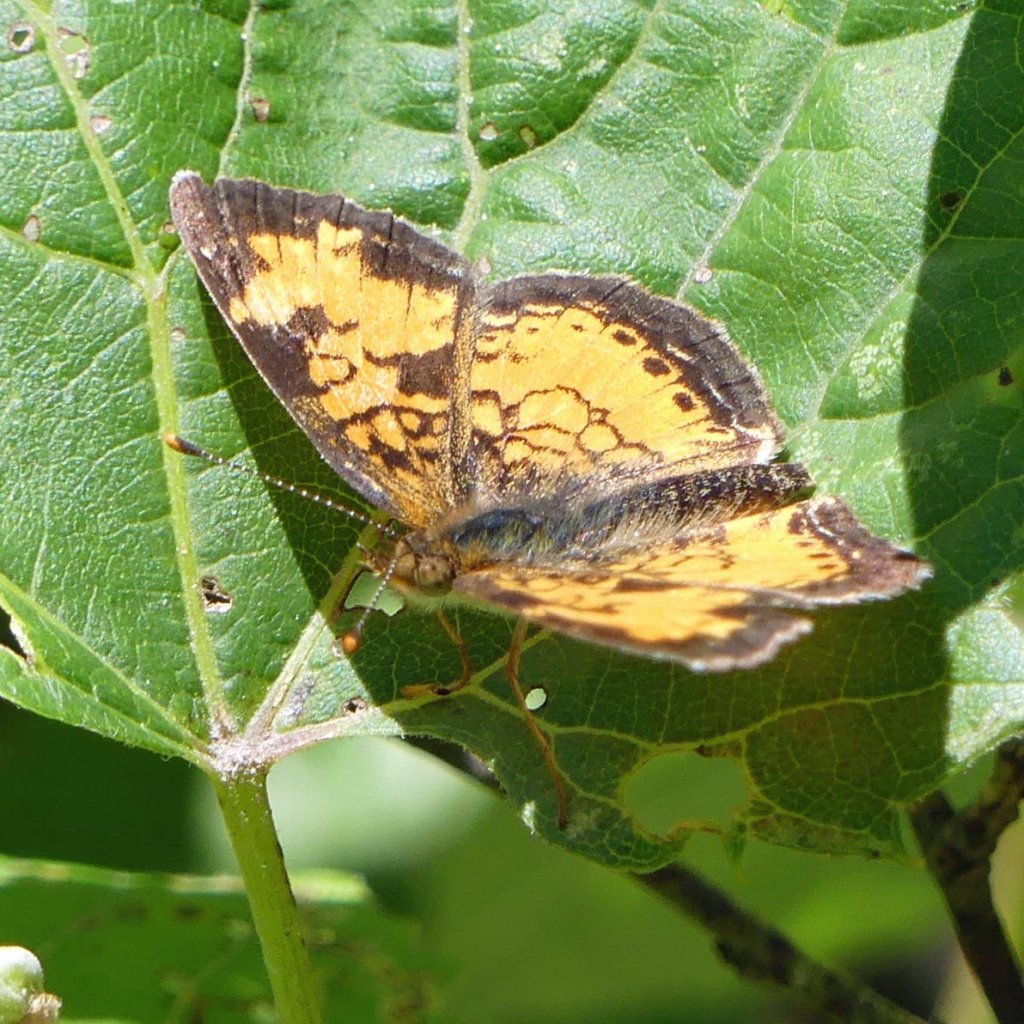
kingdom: Animalia
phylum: Arthropoda
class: Insecta
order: Lepidoptera
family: Nymphalidae
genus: Phyciodes
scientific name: Phyciodes tharos
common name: Northern Crescent
